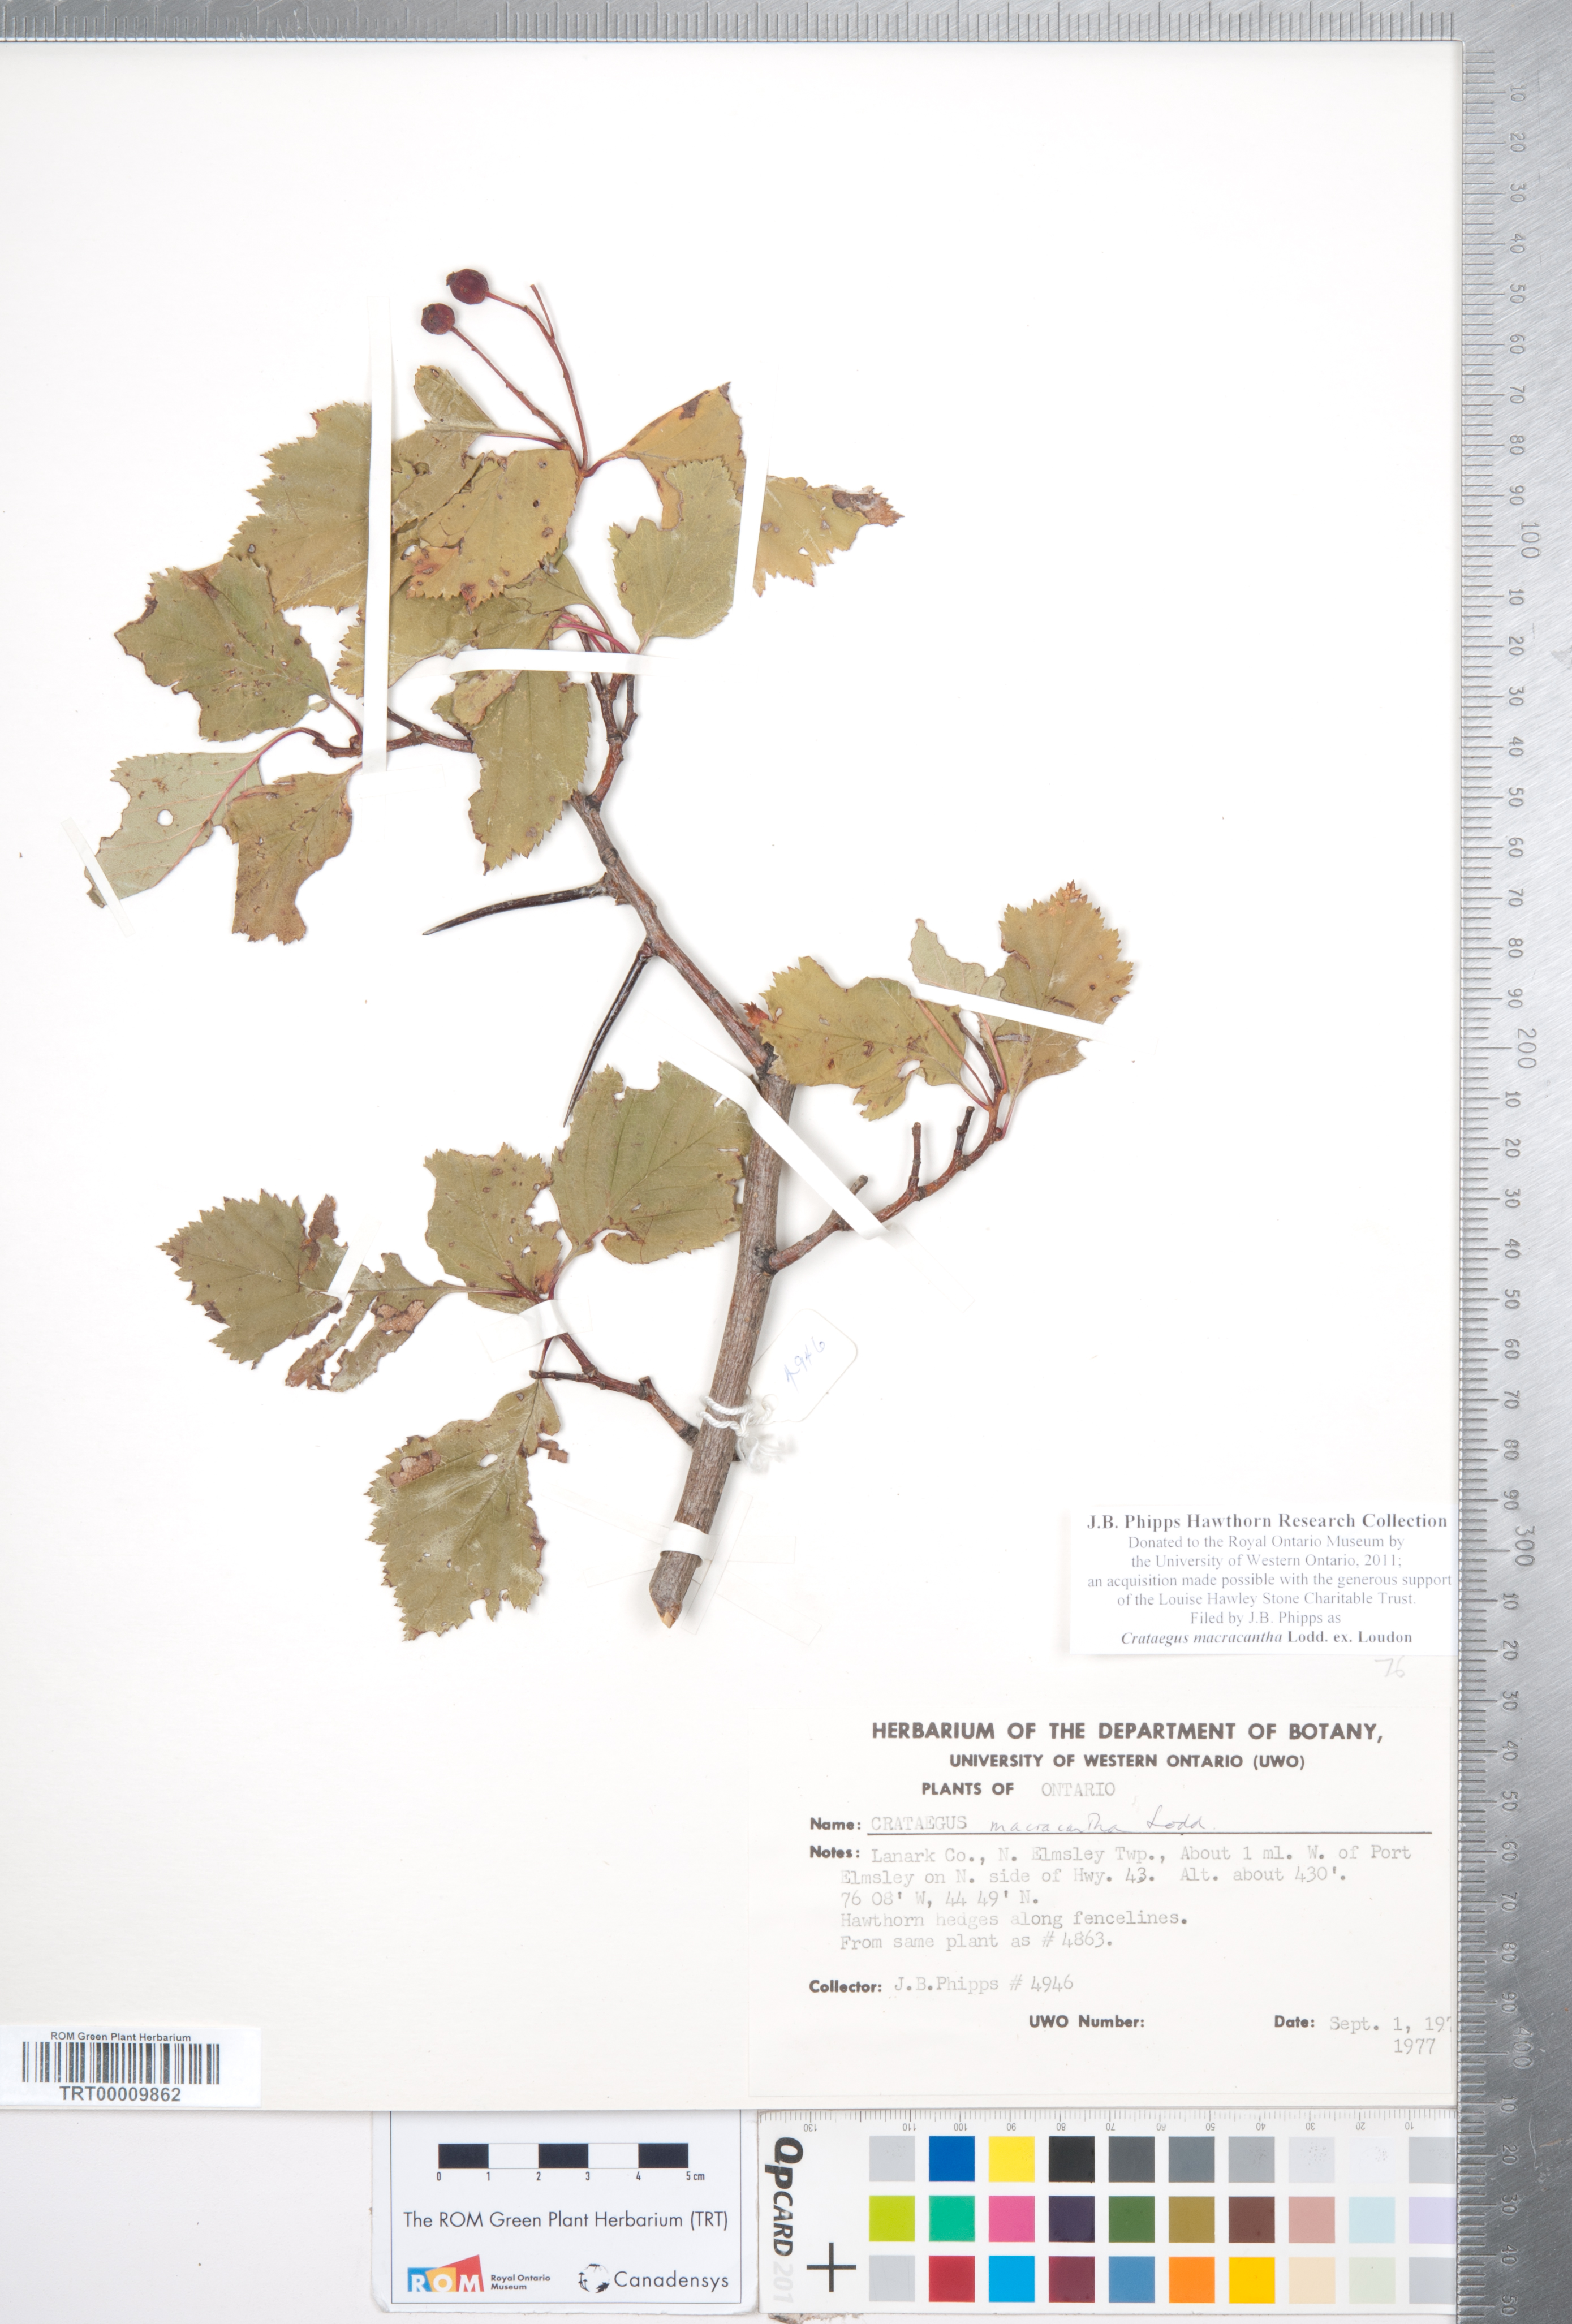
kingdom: Plantae
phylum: Tracheophyta
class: Magnoliopsida
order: Rosales
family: Rosaceae
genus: Crataegus
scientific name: Crataegus macracantha
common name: Large-thorn hawthorn
